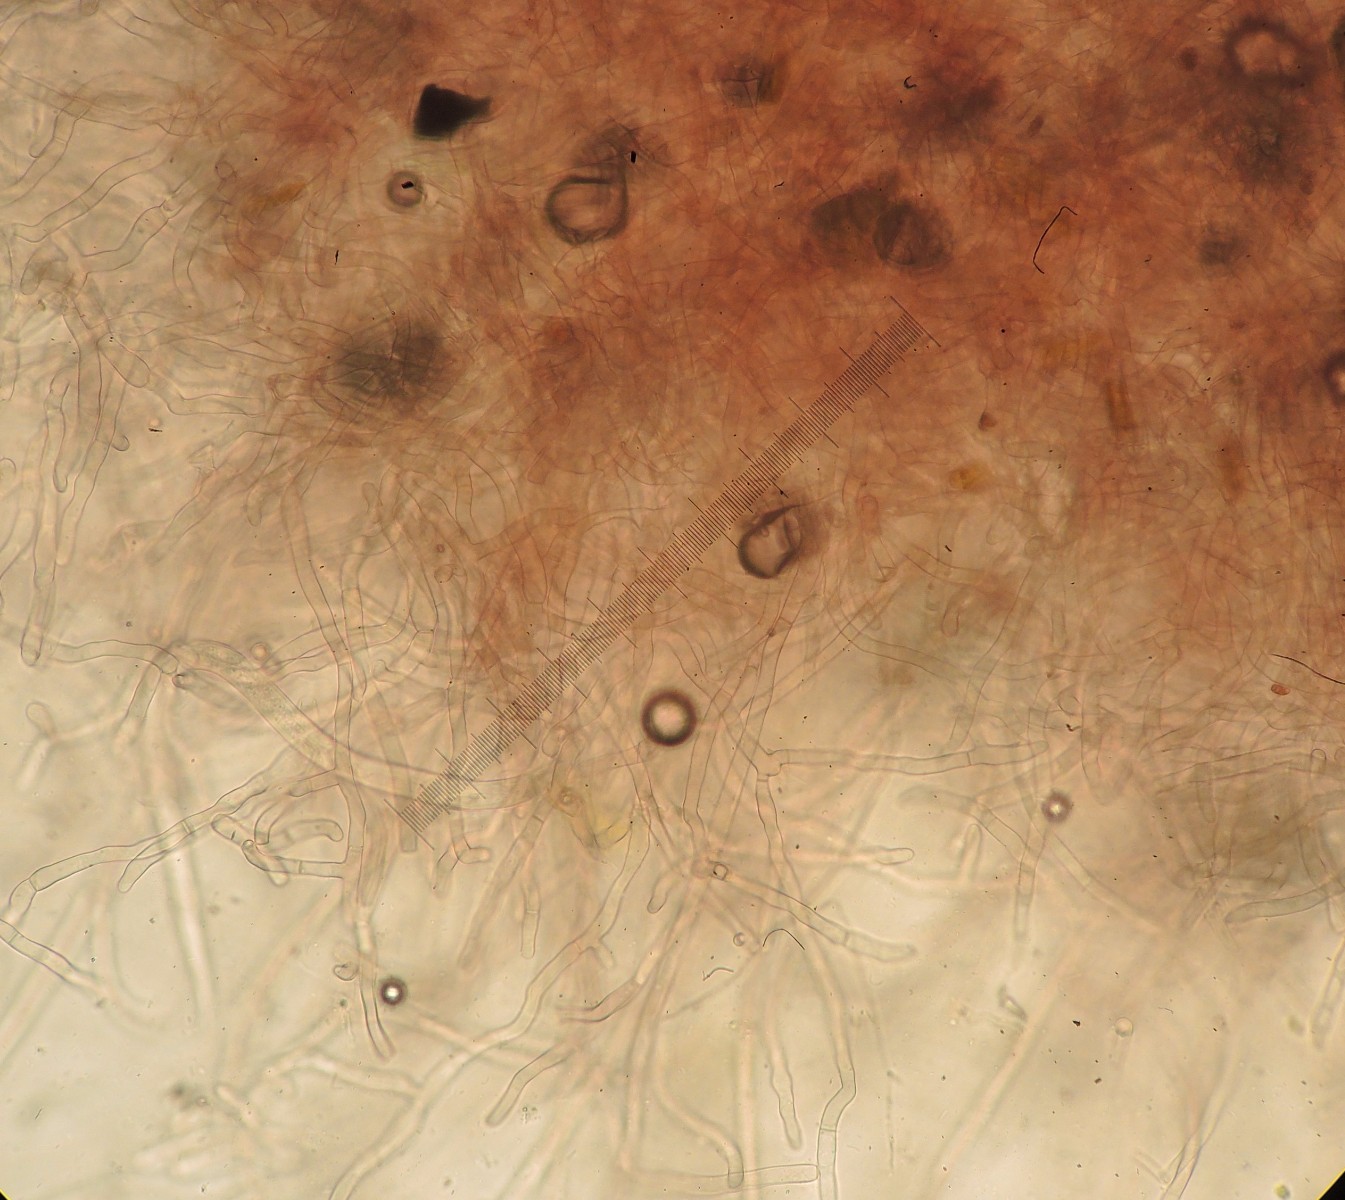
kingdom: Fungi
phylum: Basidiomycota
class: Pucciniomycetes
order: Helicobasidiales
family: Helicobasidiaceae
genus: Helicobasidium
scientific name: Helicobasidium purpureum
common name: purpur-bispebævrehinde
